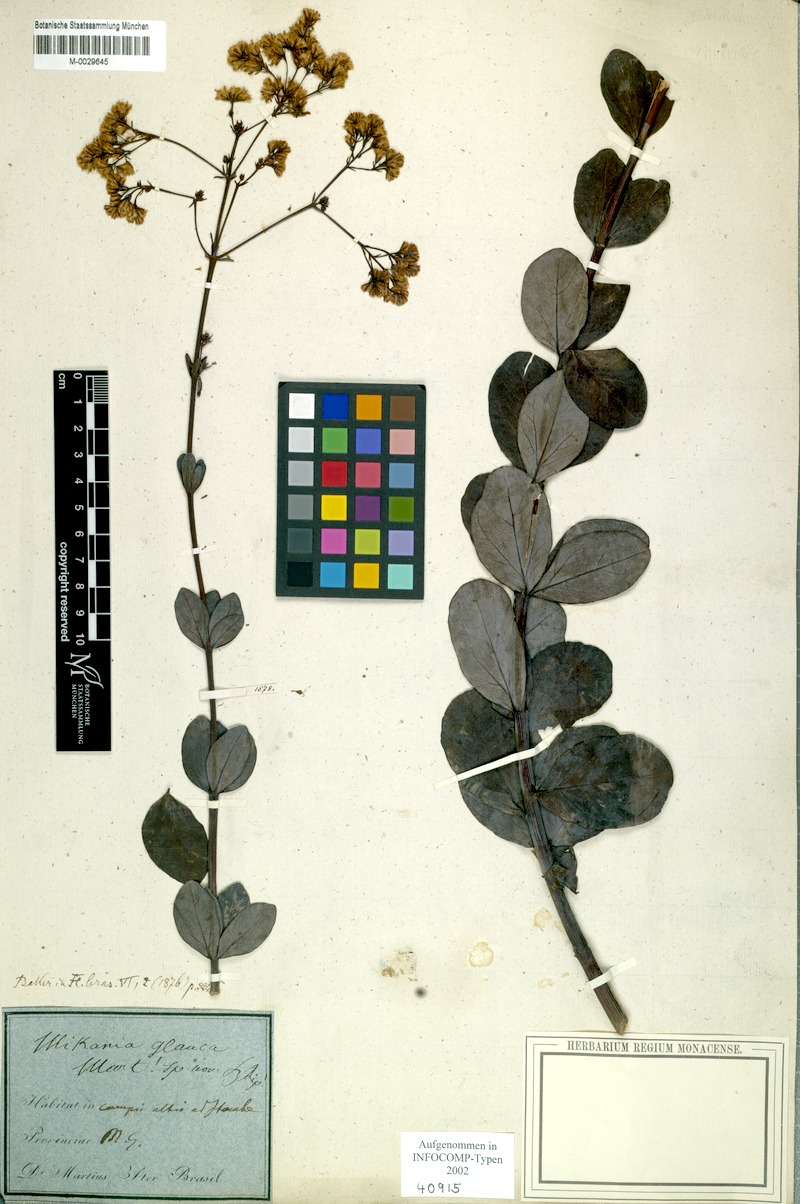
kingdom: Plantae
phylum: Tracheophyta
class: Magnoliopsida
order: Asterales
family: Asteraceae
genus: Mikania
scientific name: Mikania glauca
